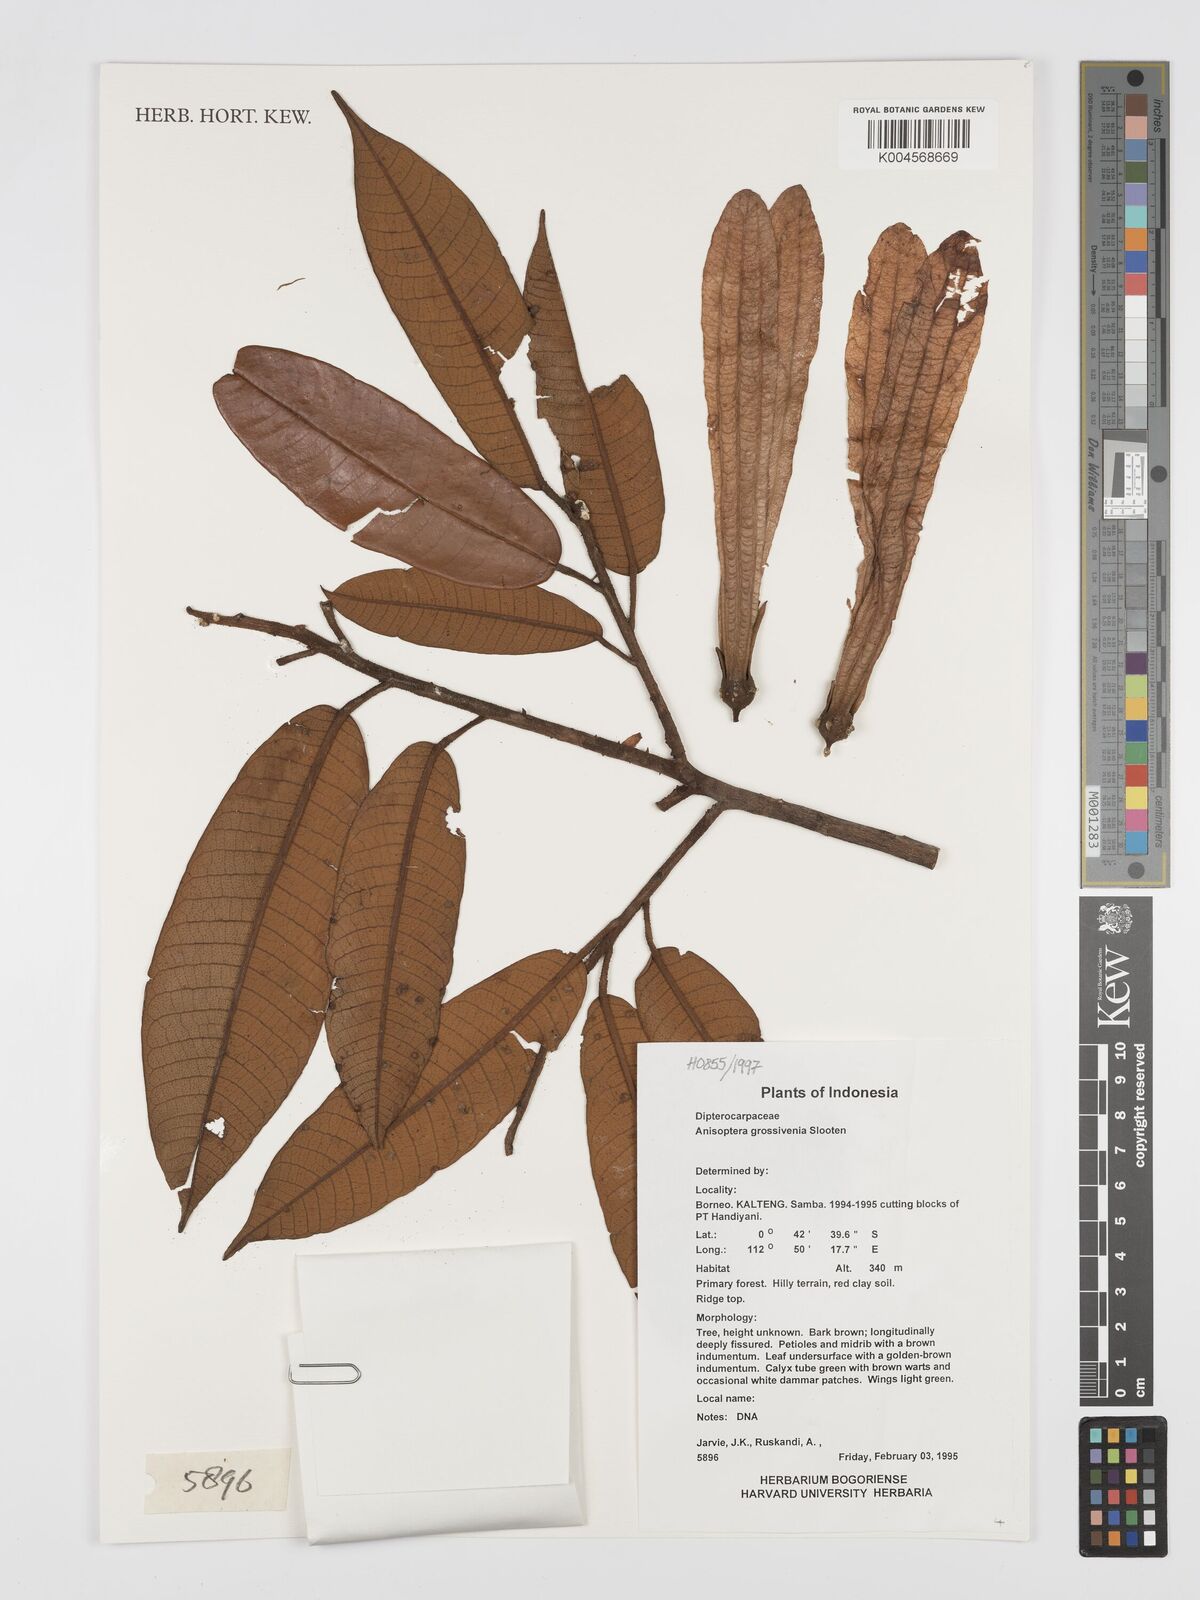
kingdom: Plantae
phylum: Tracheophyta
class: Magnoliopsida
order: Malvales
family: Dipterocarpaceae
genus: Anisoptera
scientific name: Anisoptera grossivenia
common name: Krabak
